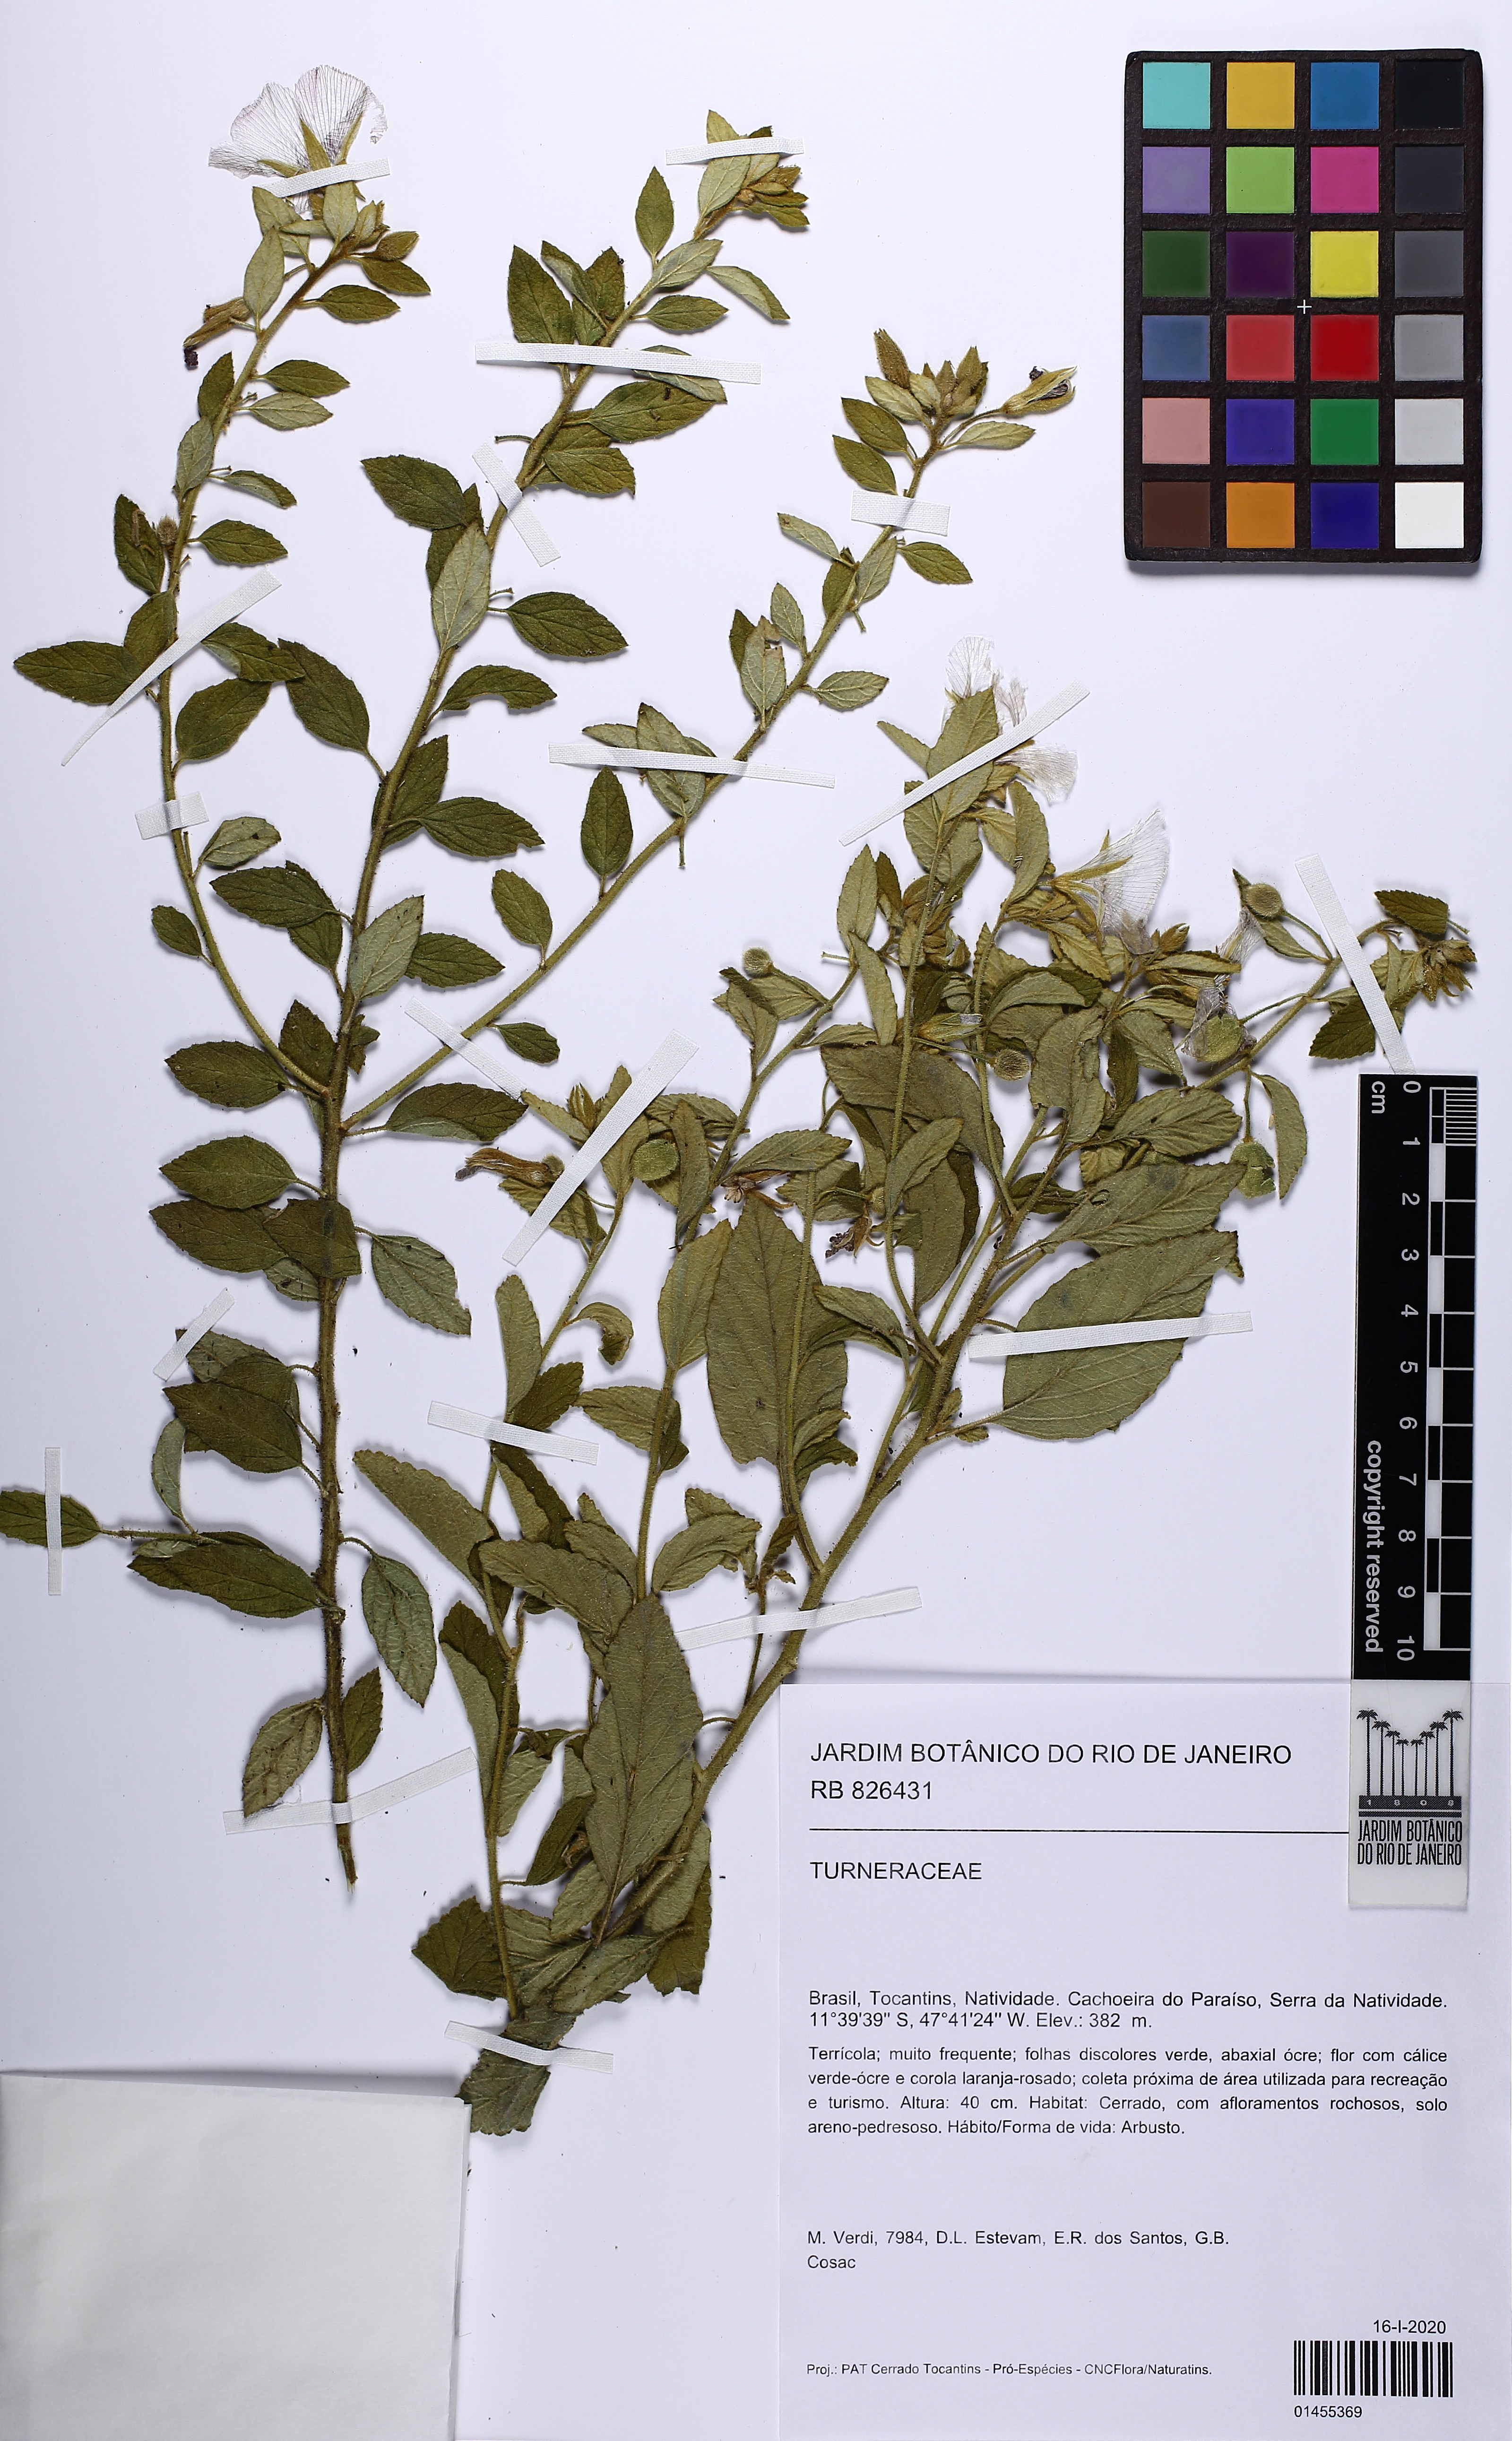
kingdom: Plantae
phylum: Tracheophyta
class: Magnoliopsida
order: Malpighiales
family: Turneraceae
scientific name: Turneraceae
